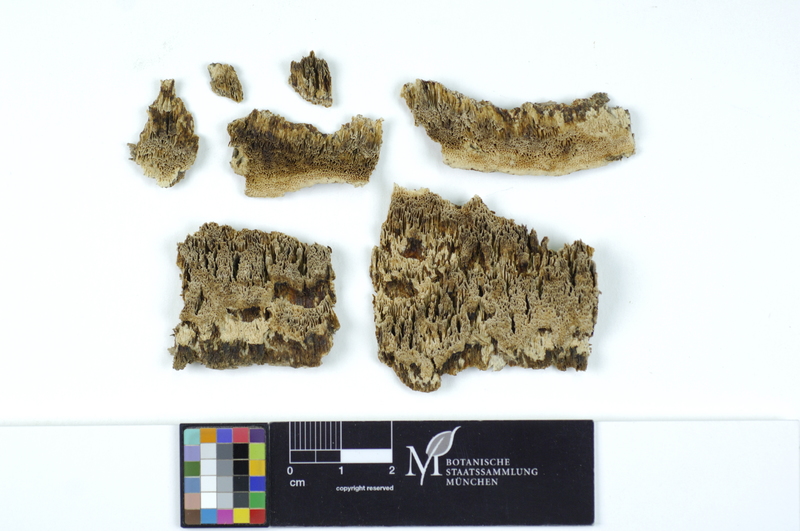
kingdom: Fungi
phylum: Basidiomycota
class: Agaricomycetes
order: Polyporales
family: Fomitopsidaceae
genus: Antrodia
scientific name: Antrodia sinuosa
